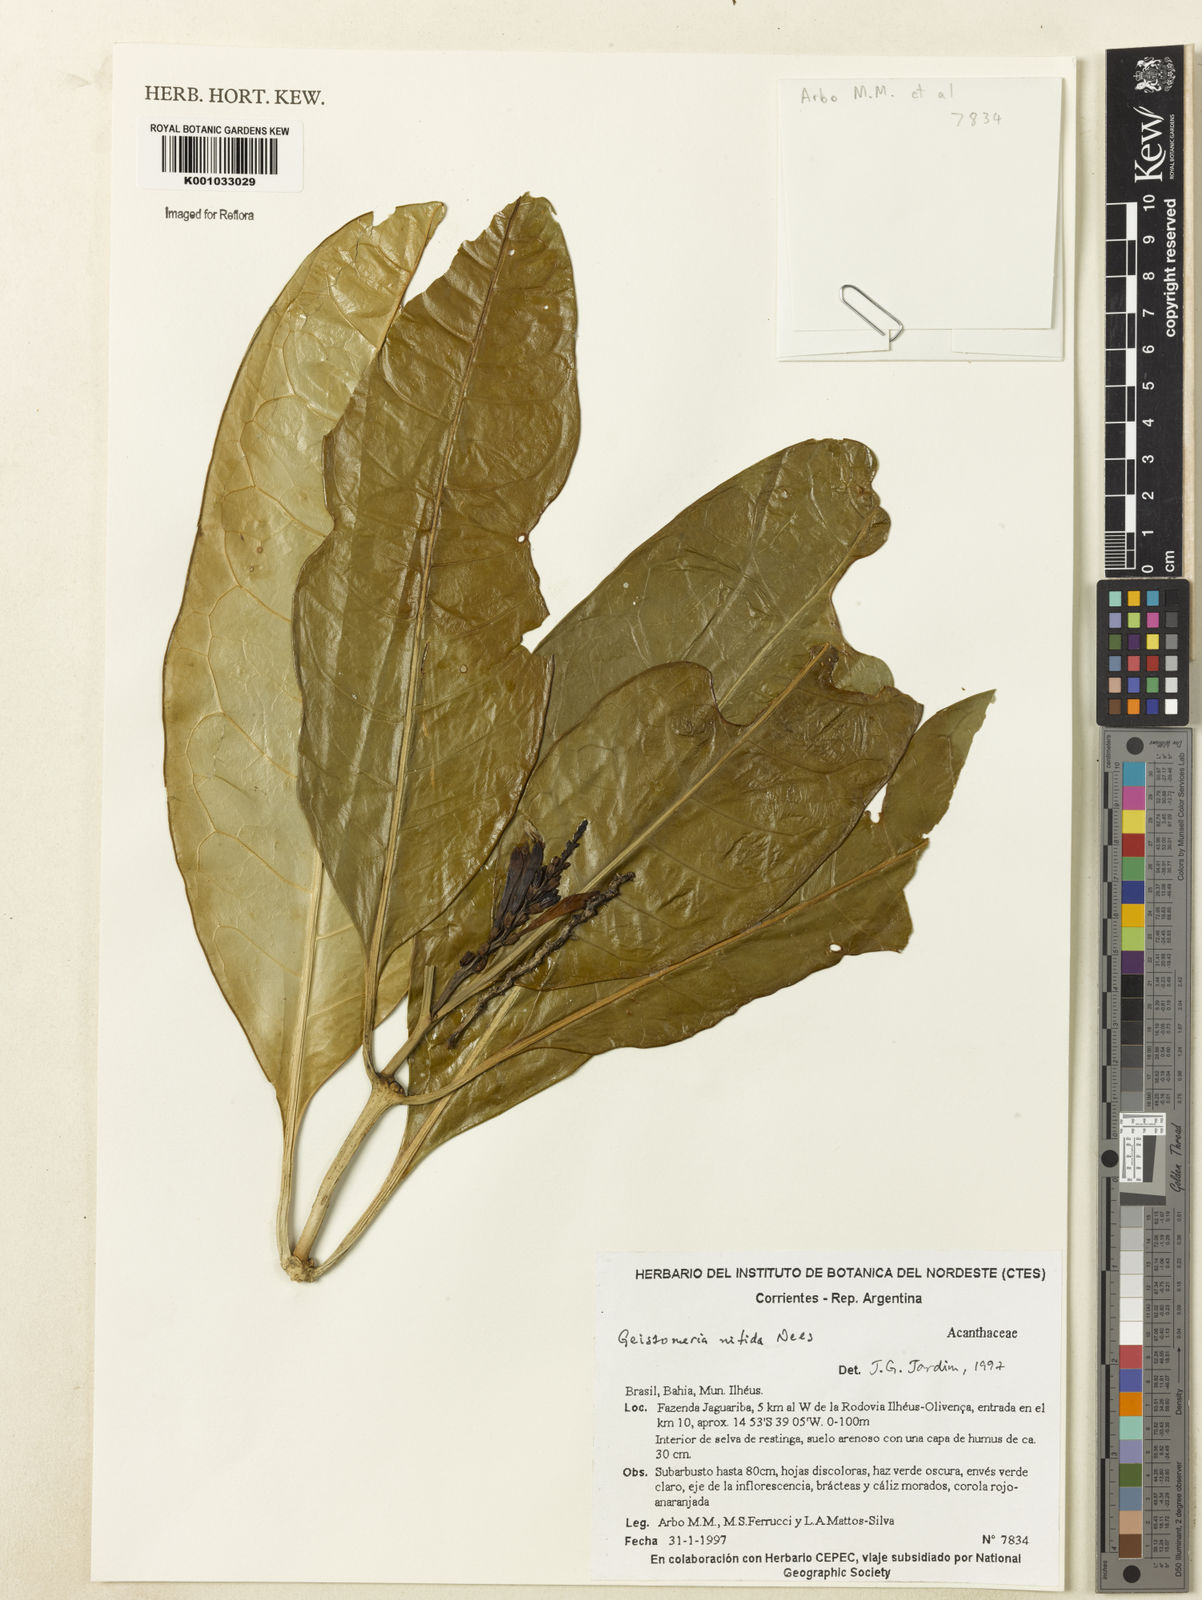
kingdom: Plantae
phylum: Tracheophyta
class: Magnoliopsida
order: Lamiales
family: Acanthaceae
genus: Aphelandra
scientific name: Aphelandra nitida
